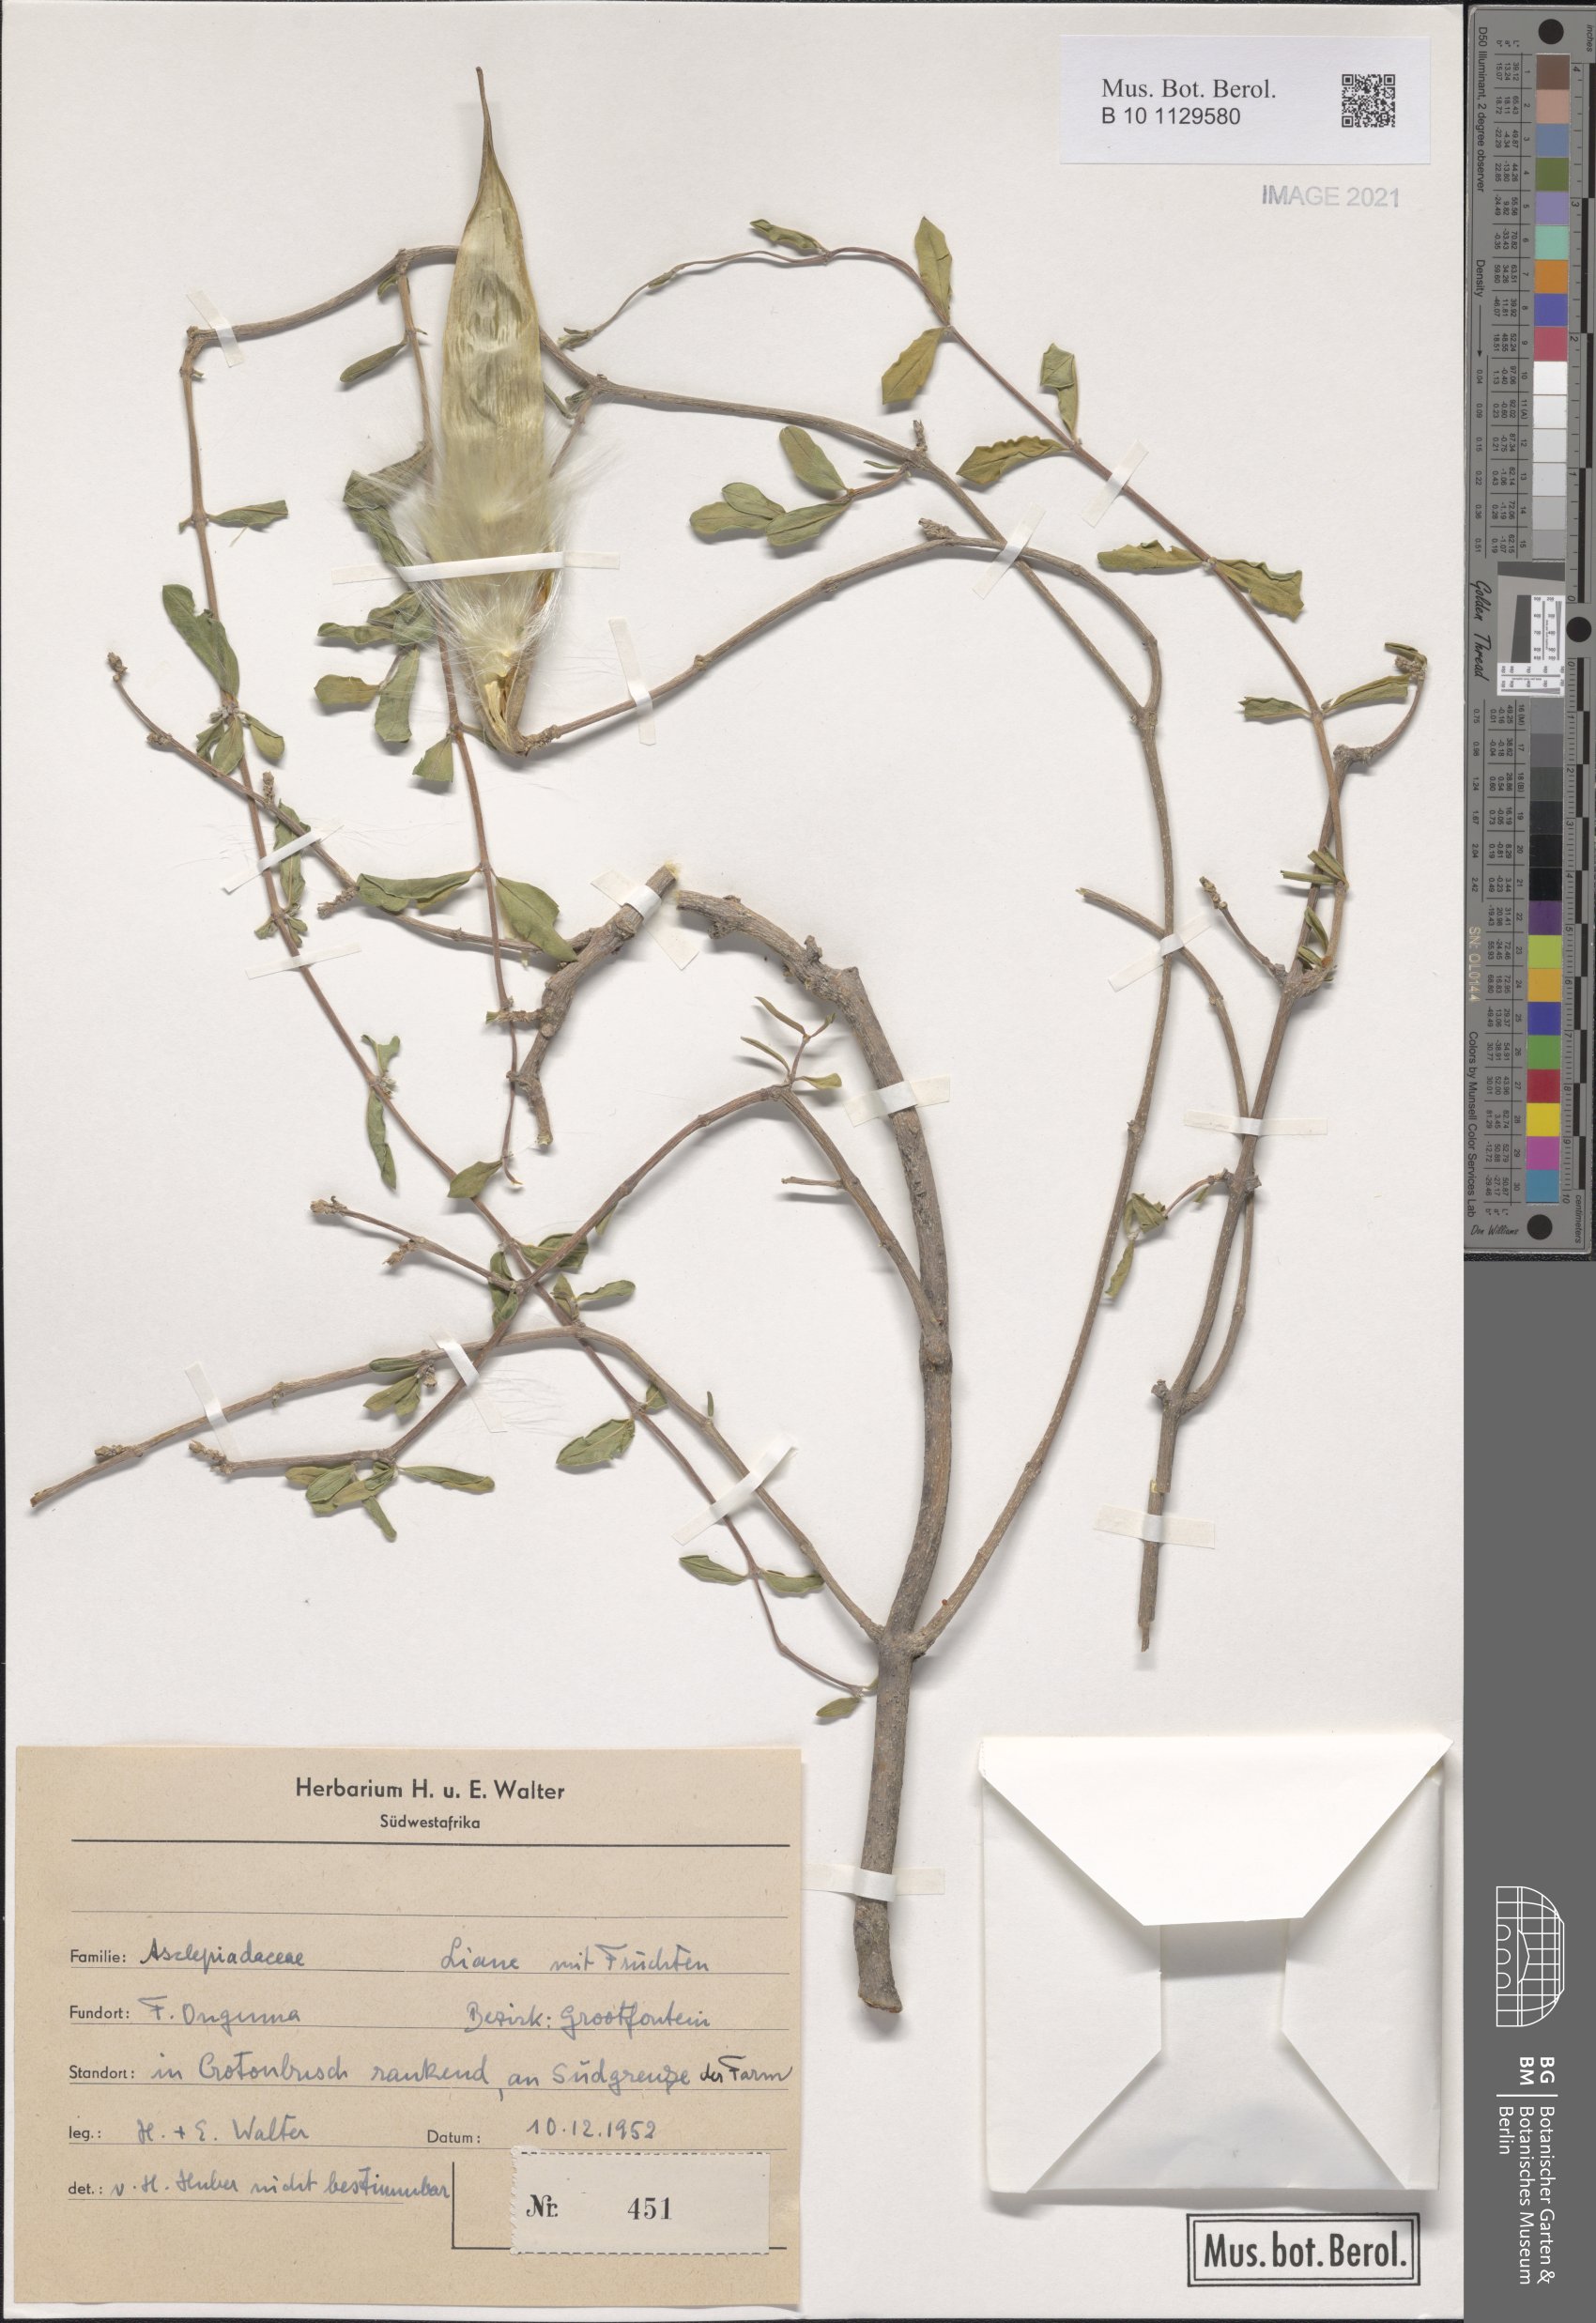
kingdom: Plantae
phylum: Tracheophyta
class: Magnoliopsida
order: Gentianales
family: Apocynaceae
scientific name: Apocynaceae
